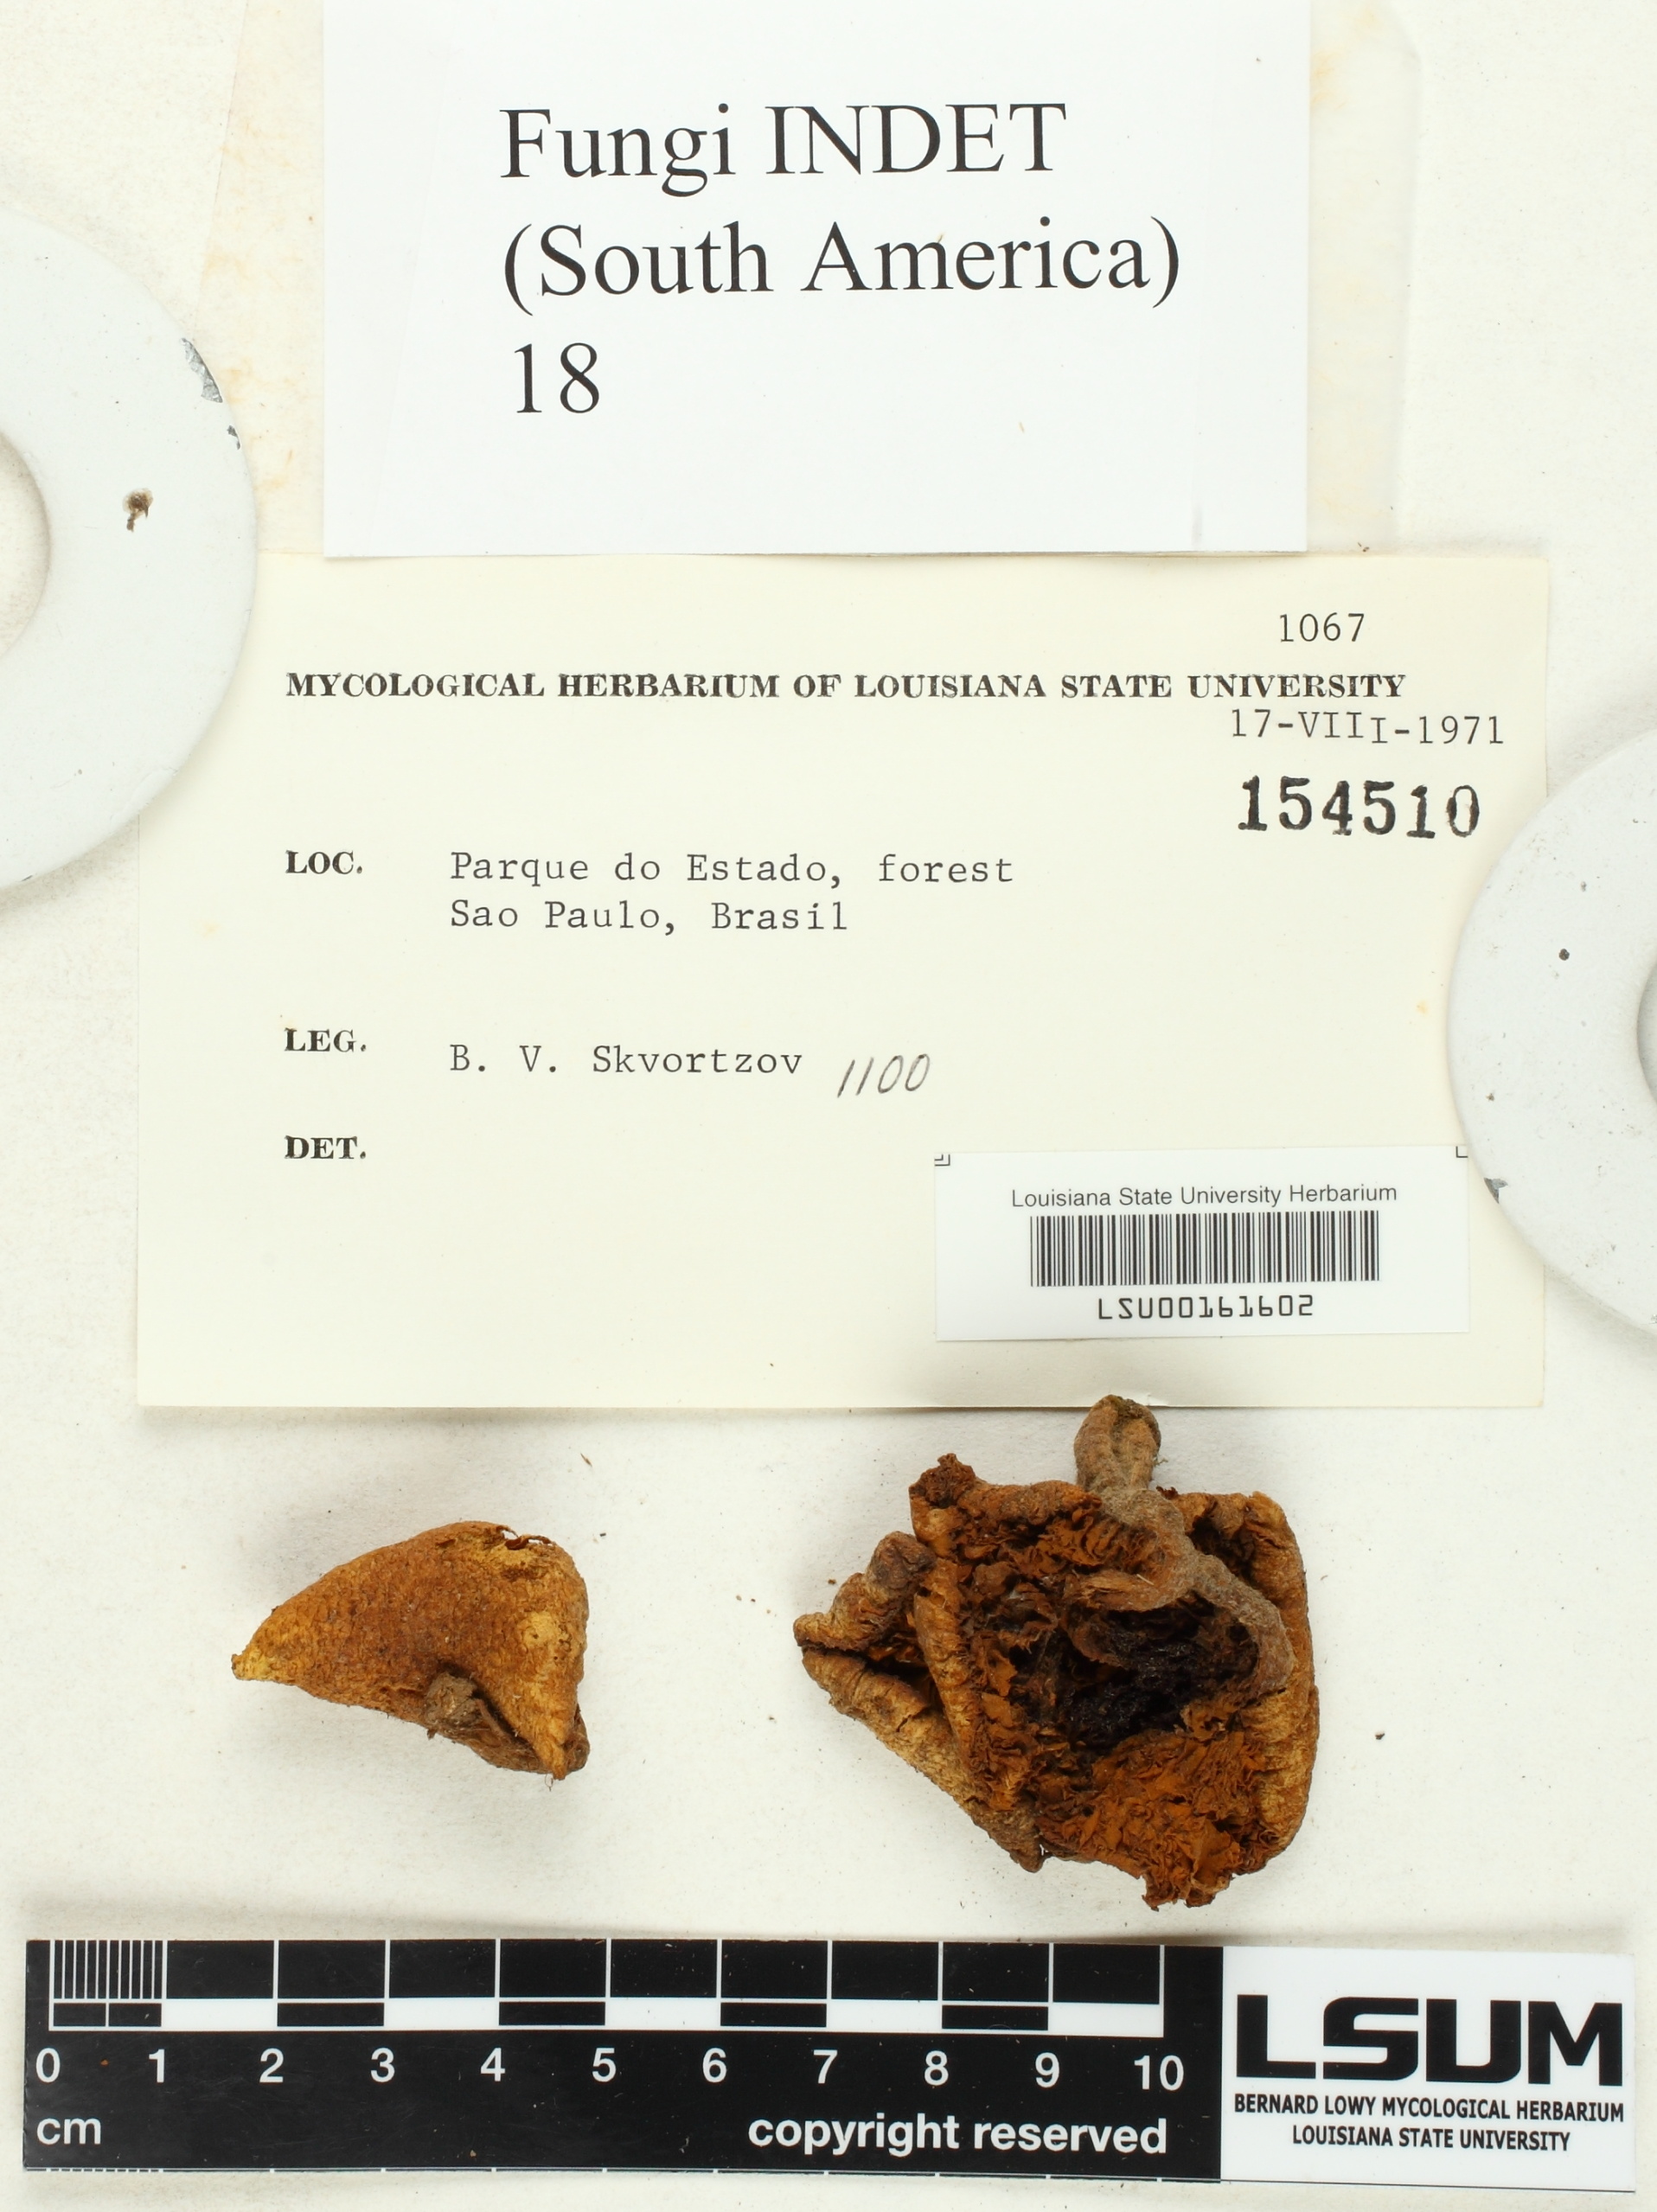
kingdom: Fungi
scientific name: Fungi
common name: Fungi
